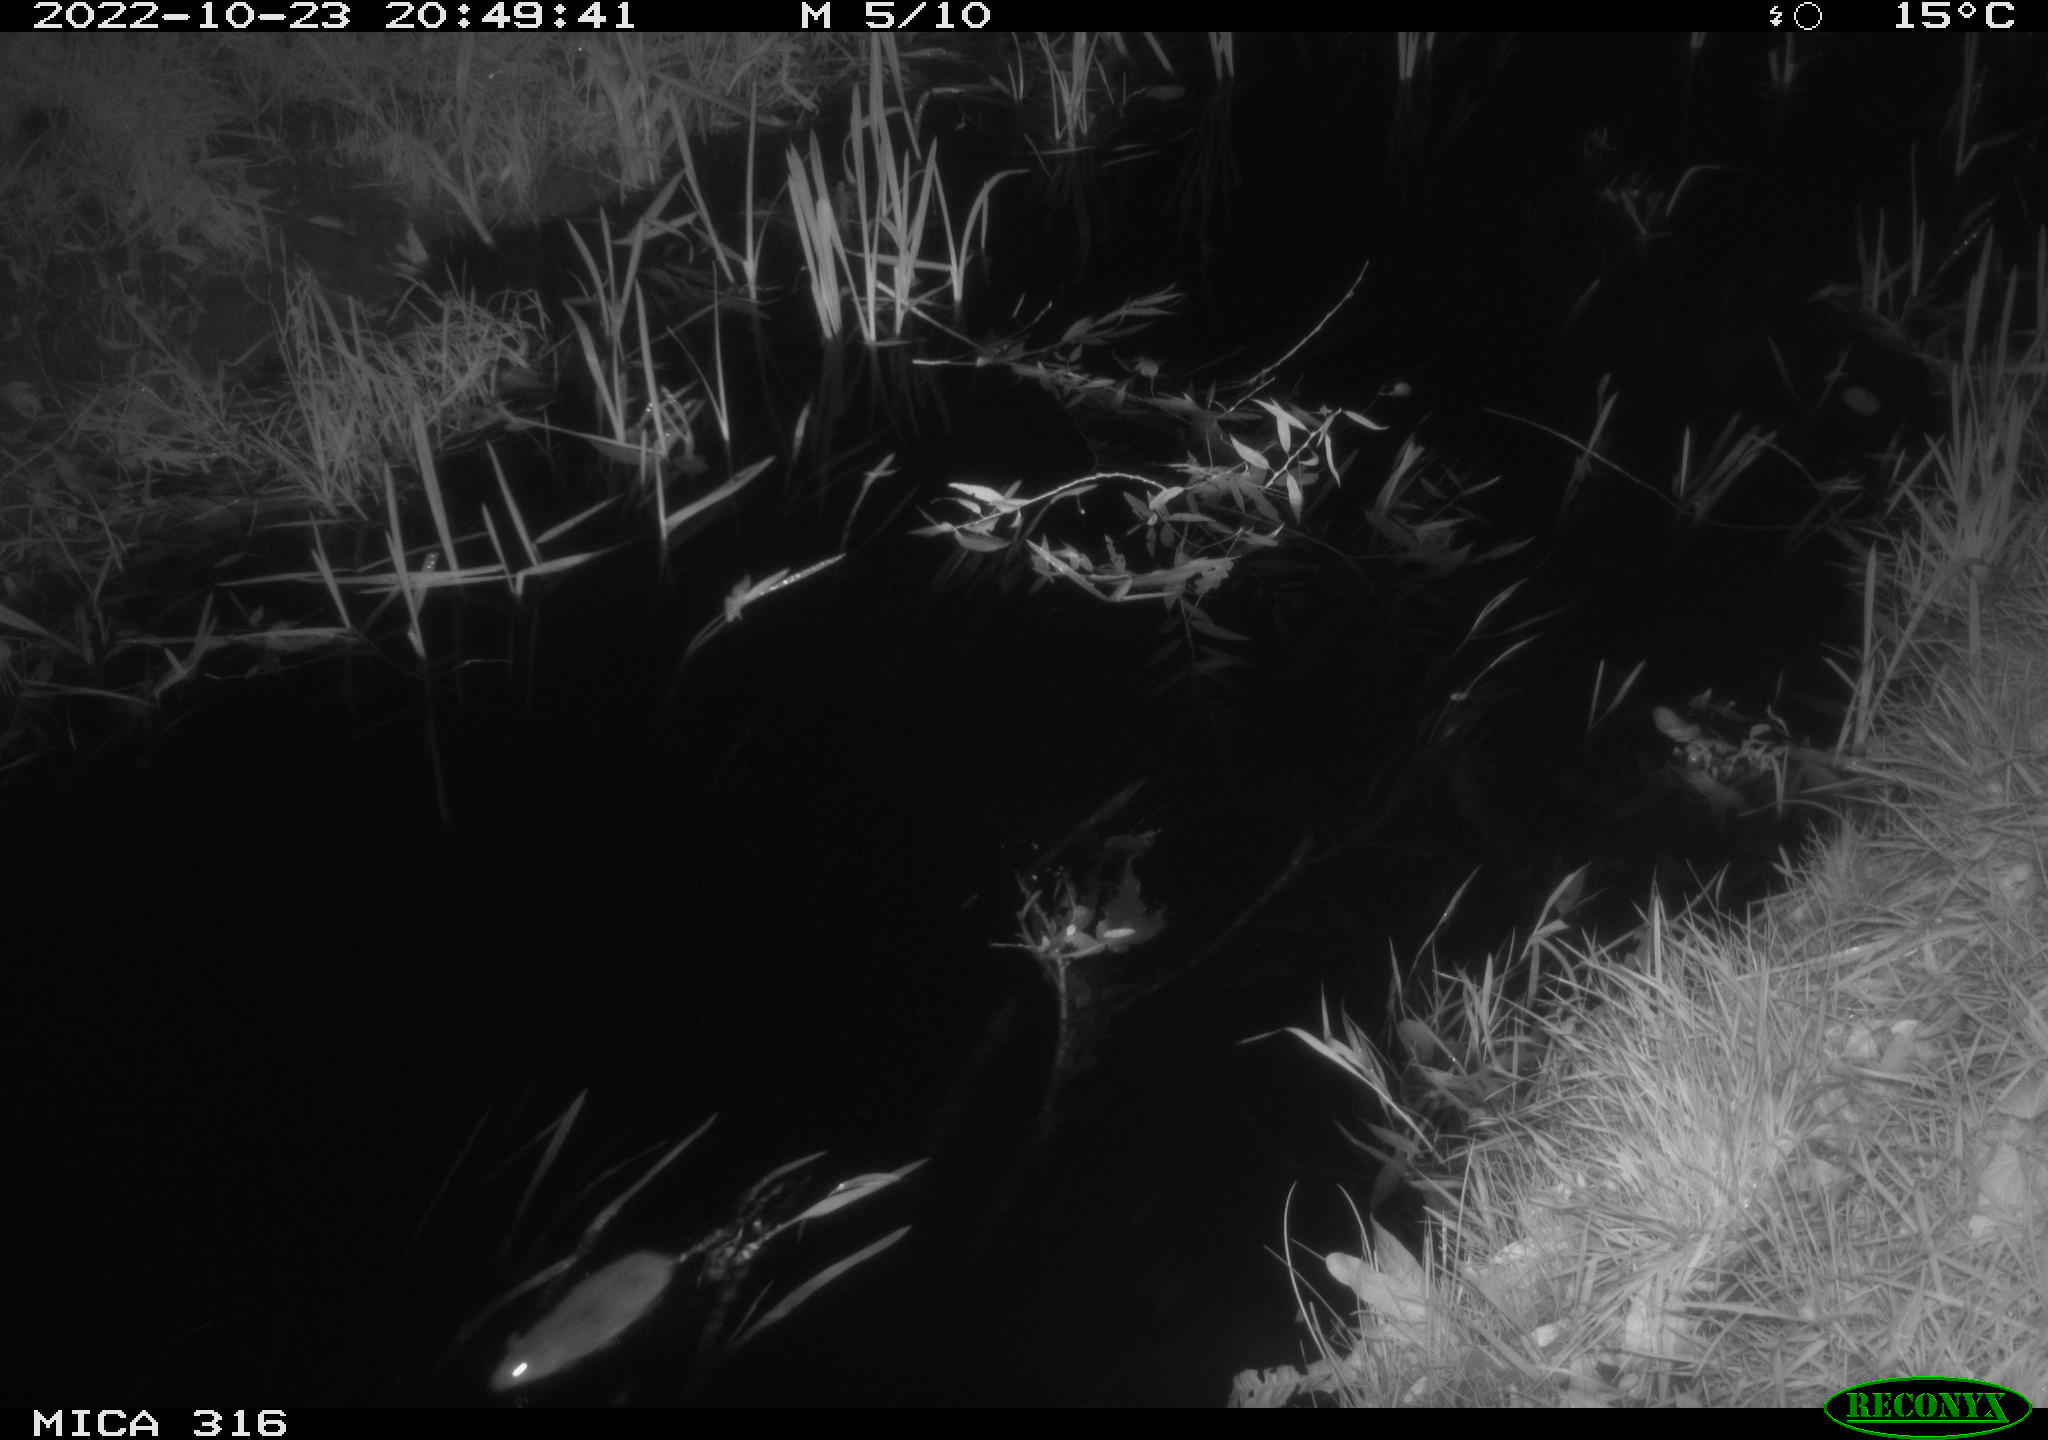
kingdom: Animalia
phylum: Chordata
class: Mammalia
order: Rodentia
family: Muridae
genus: Rattus
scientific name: Rattus norvegicus
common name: Brown rat
